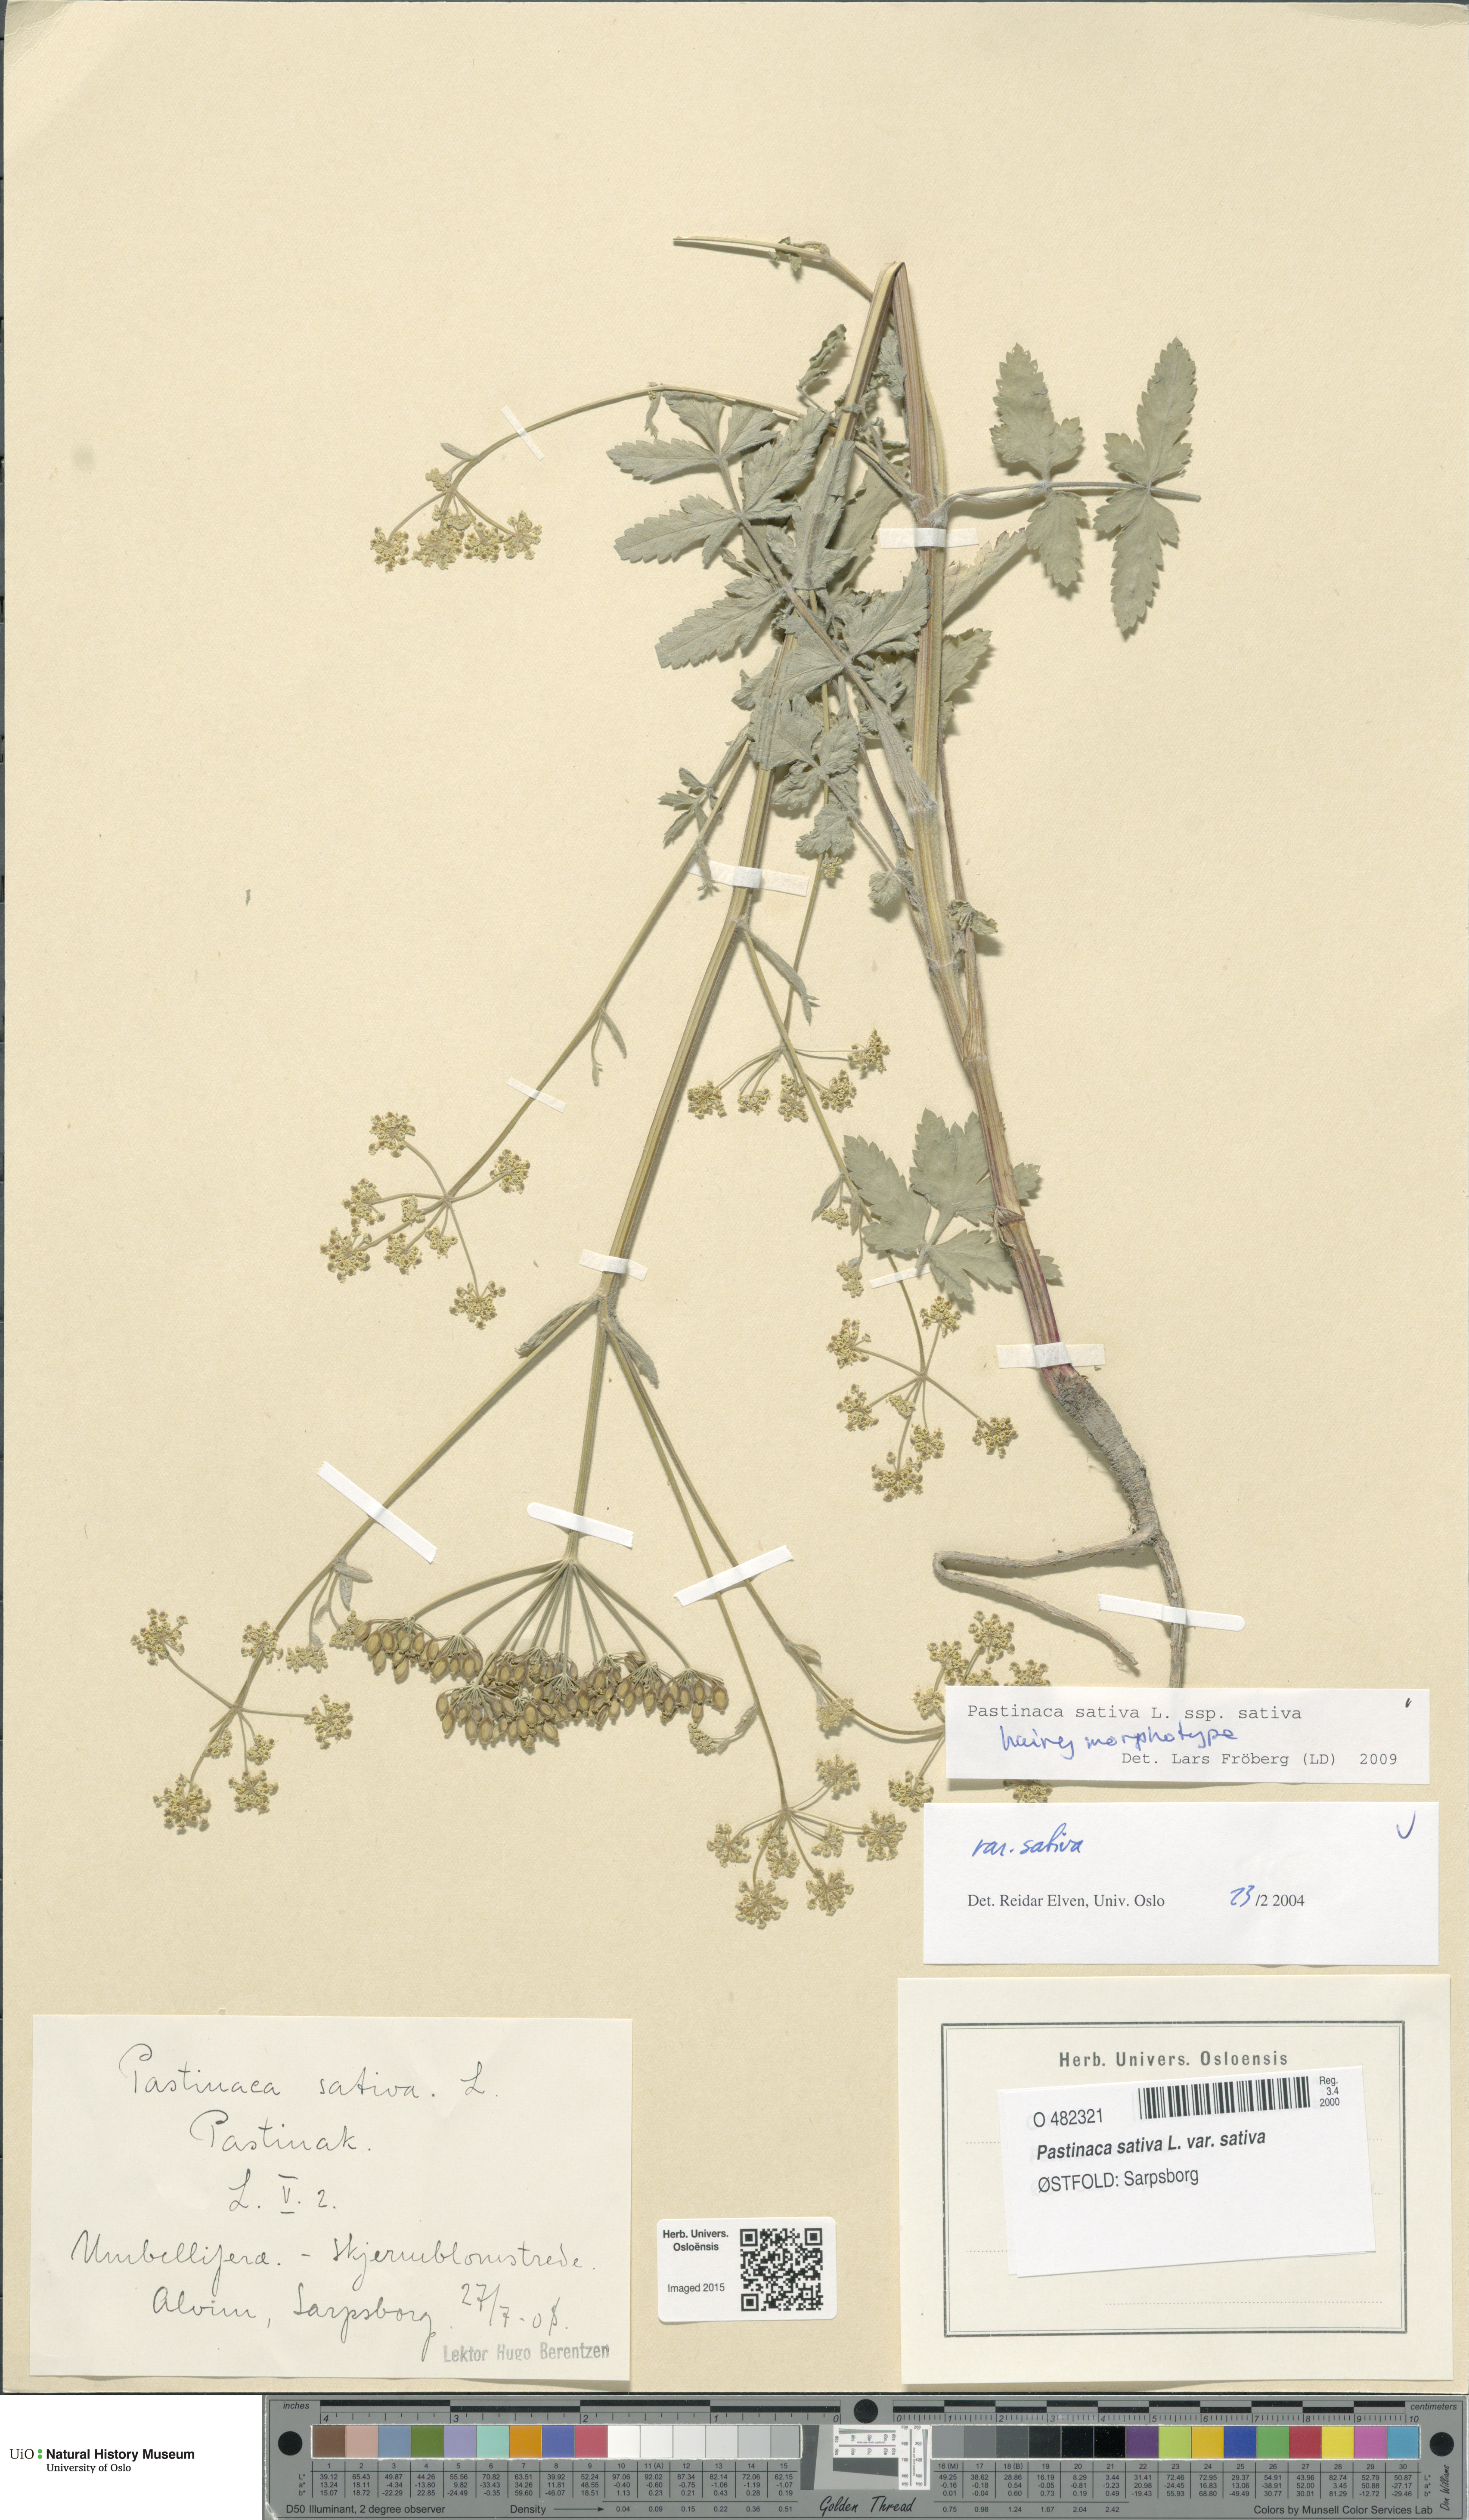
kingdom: Plantae
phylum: Tracheophyta
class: Magnoliopsida
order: Apiales
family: Apiaceae
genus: Pastinaca
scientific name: Pastinaca sativa
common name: Wild parsnip
